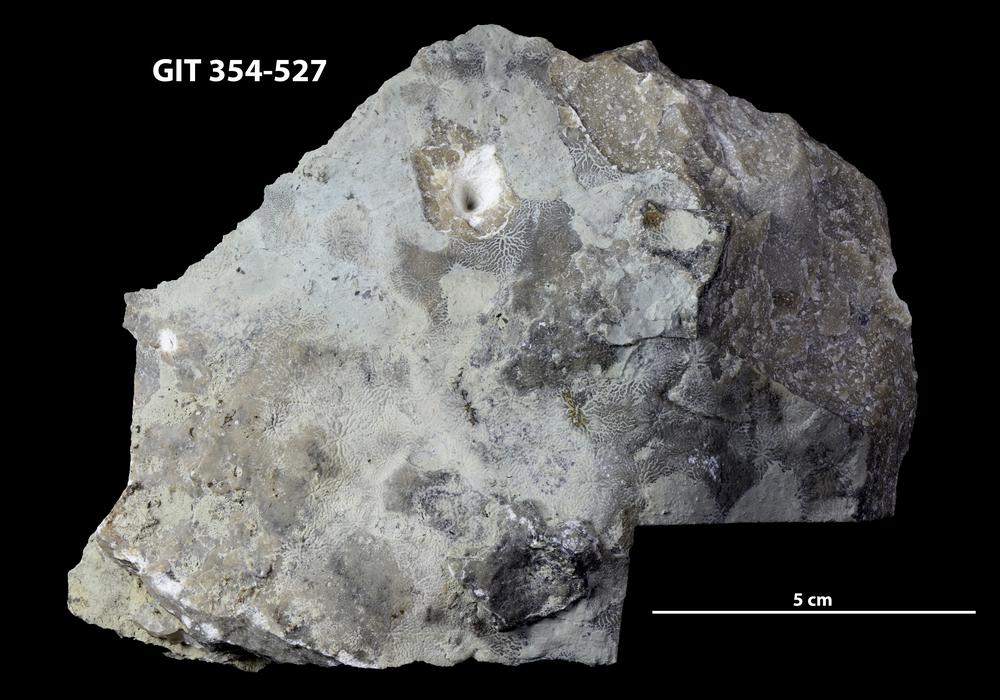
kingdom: Animalia
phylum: Porifera
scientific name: Porifera
